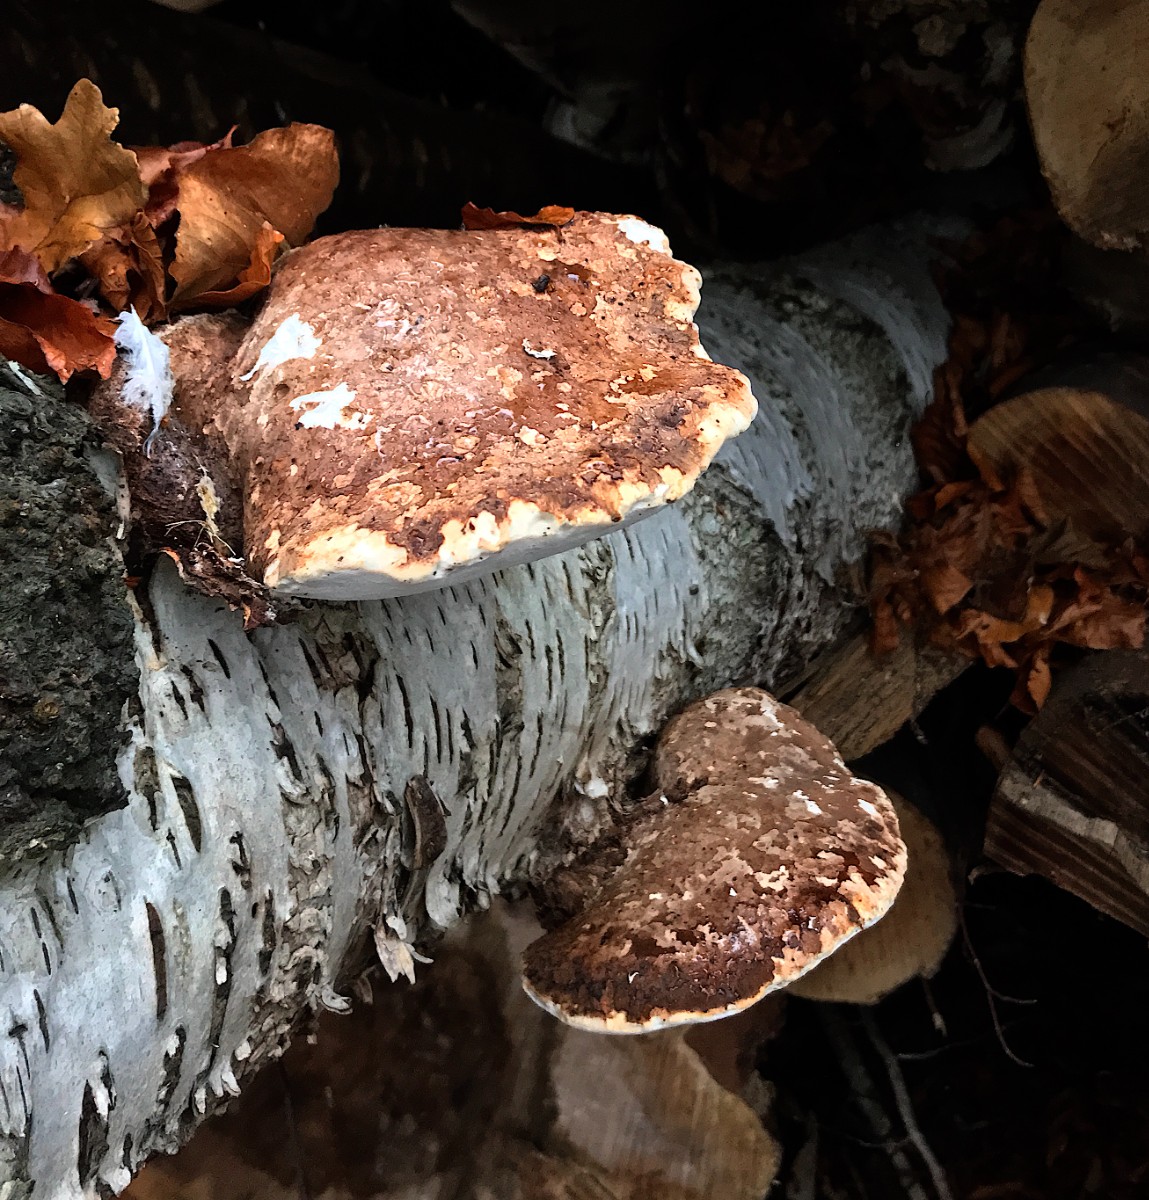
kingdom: Fungi
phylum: Basidiomycota
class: Agaricomycetes
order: Polyporales
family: Fomitopsidaceae
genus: Fomitopsis
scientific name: Fomitopsis betulina
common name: birkeporesvamp
